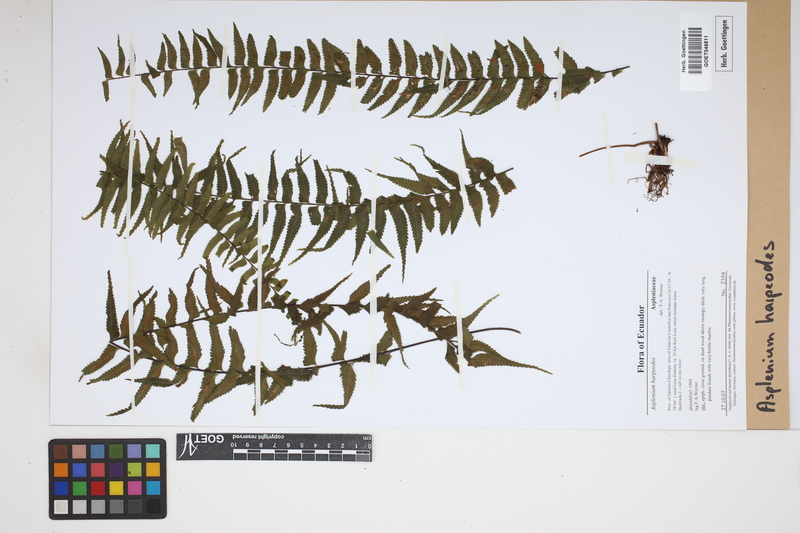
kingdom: Plantae
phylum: Tracheophyta
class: Polypodiopsida
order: Polypodiales
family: Aspleniaceae
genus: Asplenium
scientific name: Asplenium harpeodes
